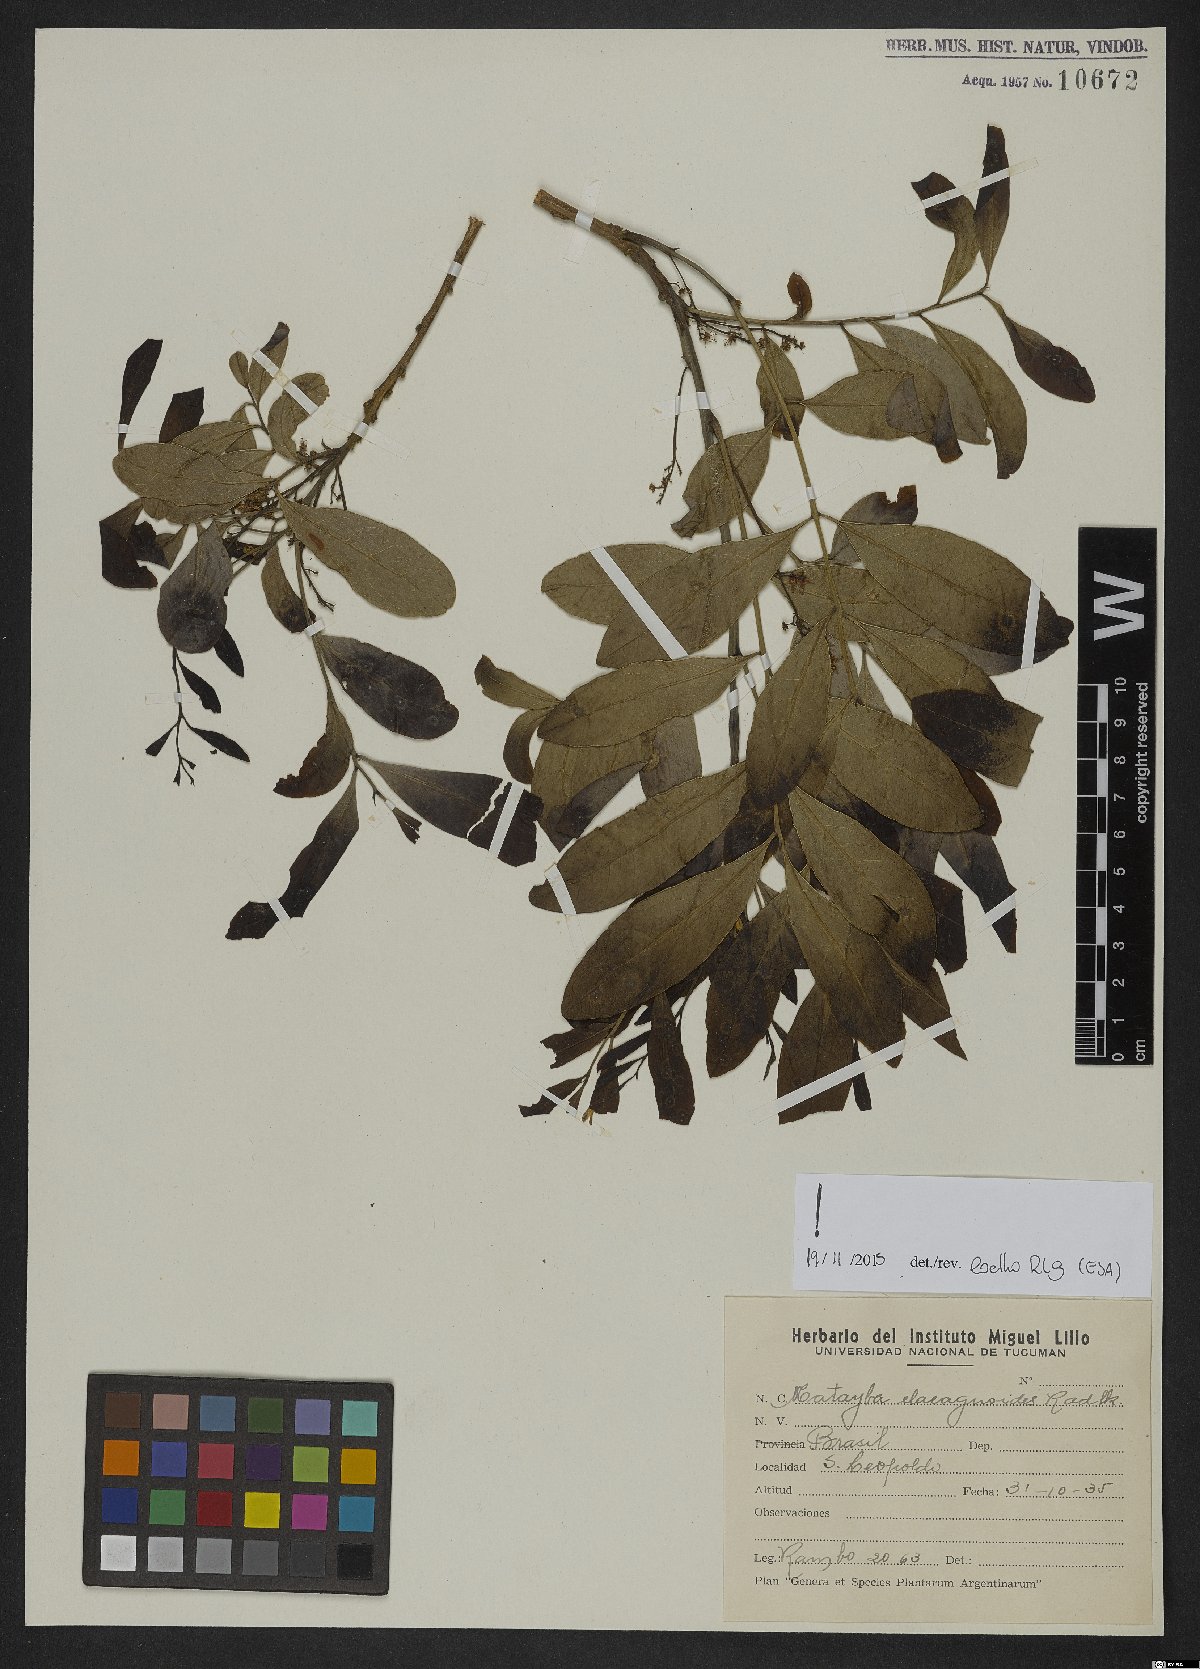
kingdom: Plantae
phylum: Tracheophyta
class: Magnoliopsida
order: Sapindales
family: Sapindaceae
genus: Matayba
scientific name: Matayba elaeagnoides
